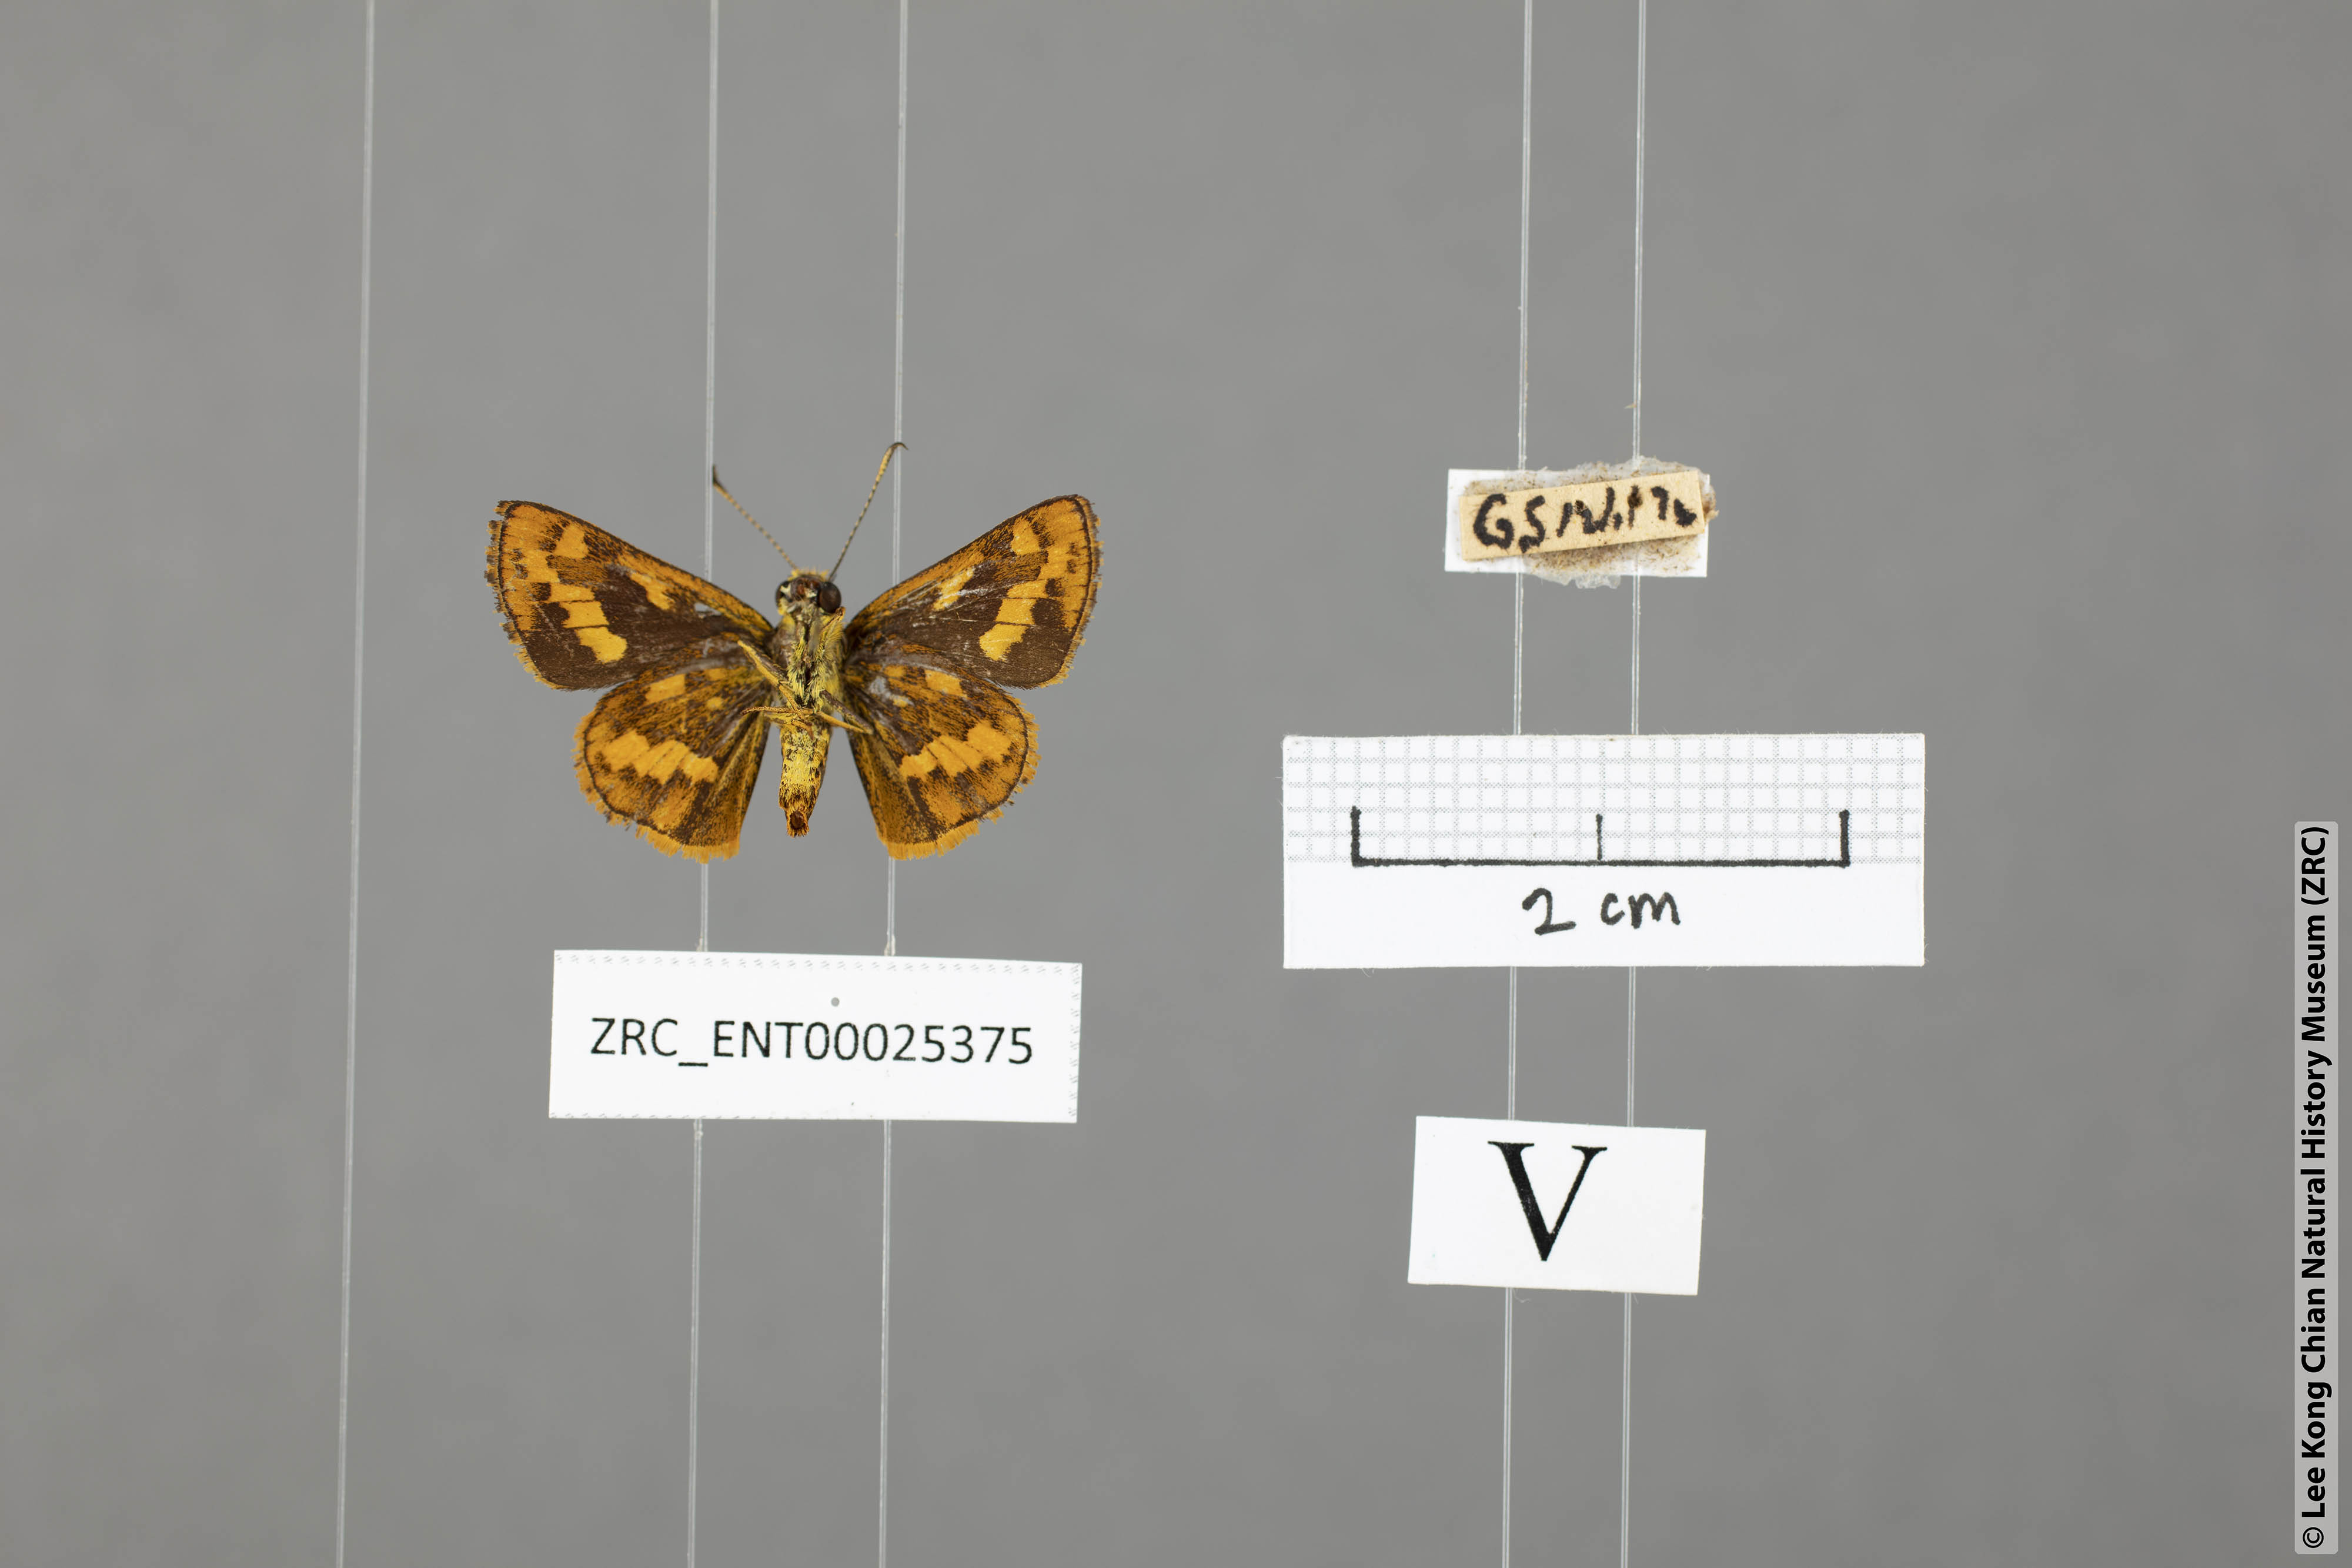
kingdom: Animalia
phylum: Arthropoda
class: Insecta
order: Lepidoptera
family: Hesperiidae
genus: Potanthus
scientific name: Potanthus ganda
